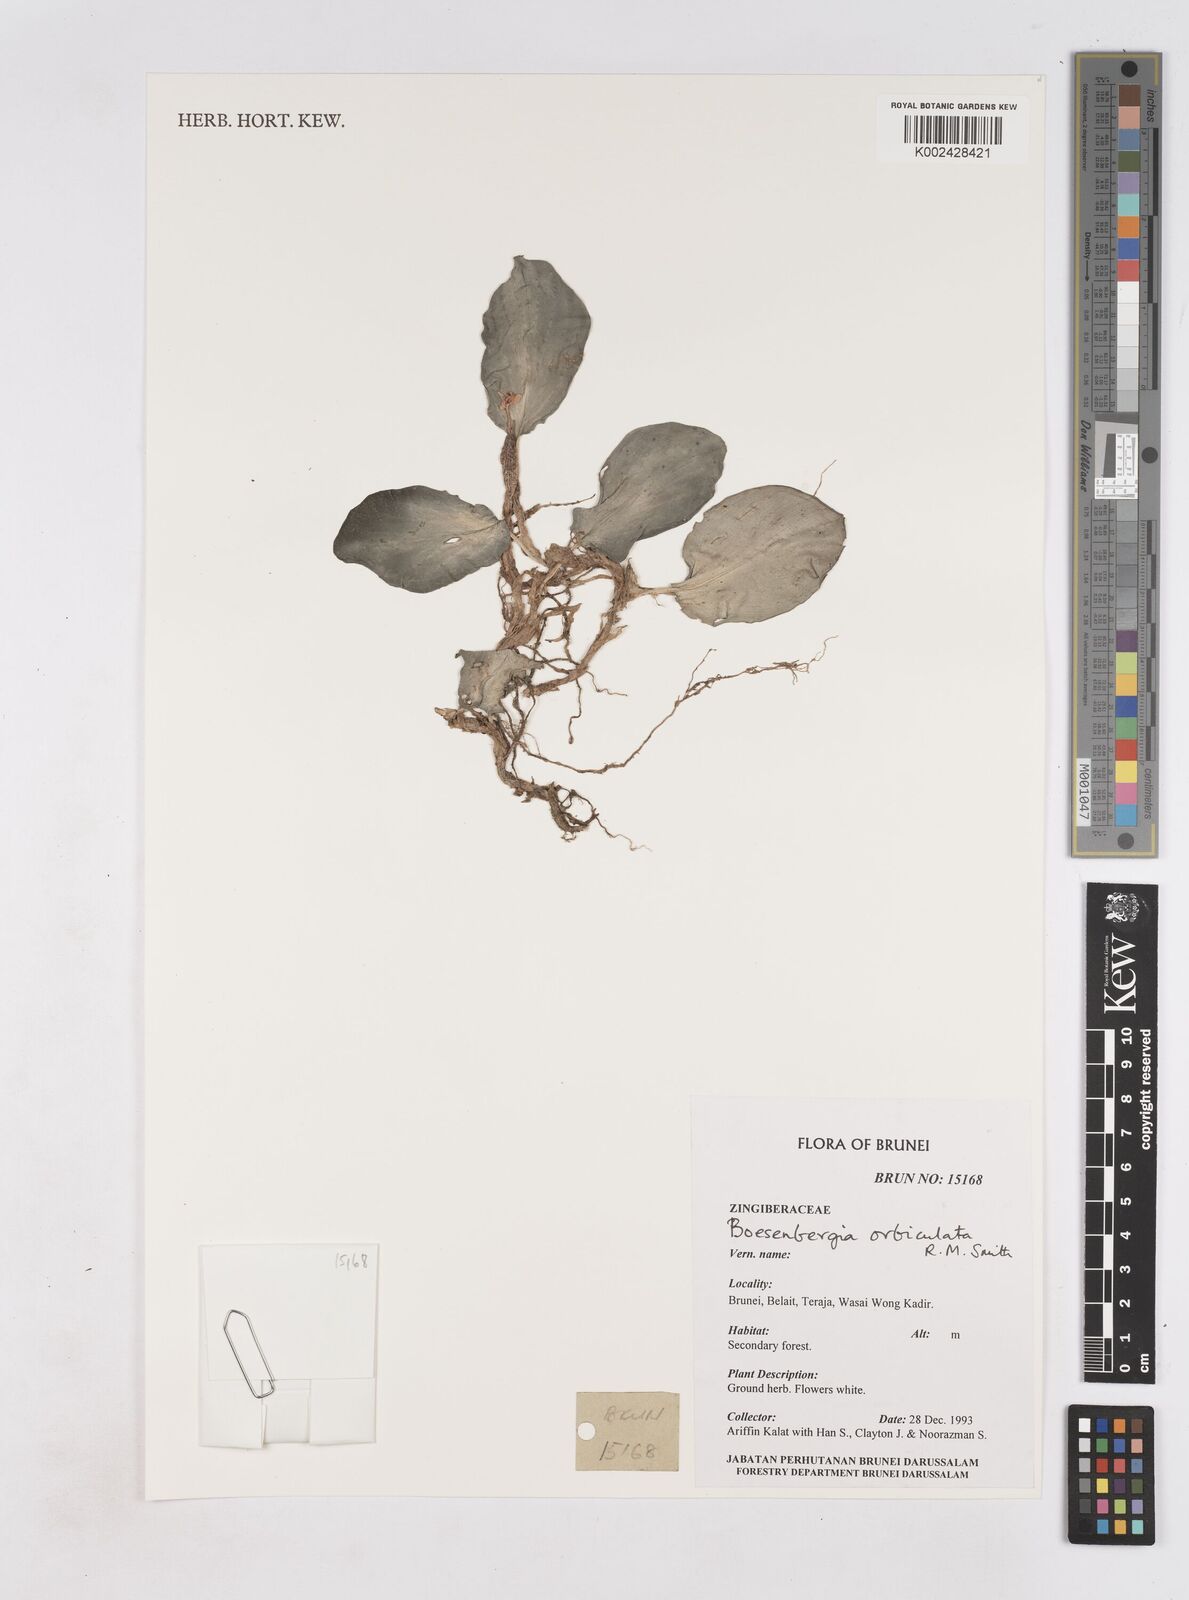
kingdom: Plantae
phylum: Tracheophyta
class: Liliopsida
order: Zingiberales
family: Zingiberaceae
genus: Boesenbergia
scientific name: Boesenbergia orbiculata
